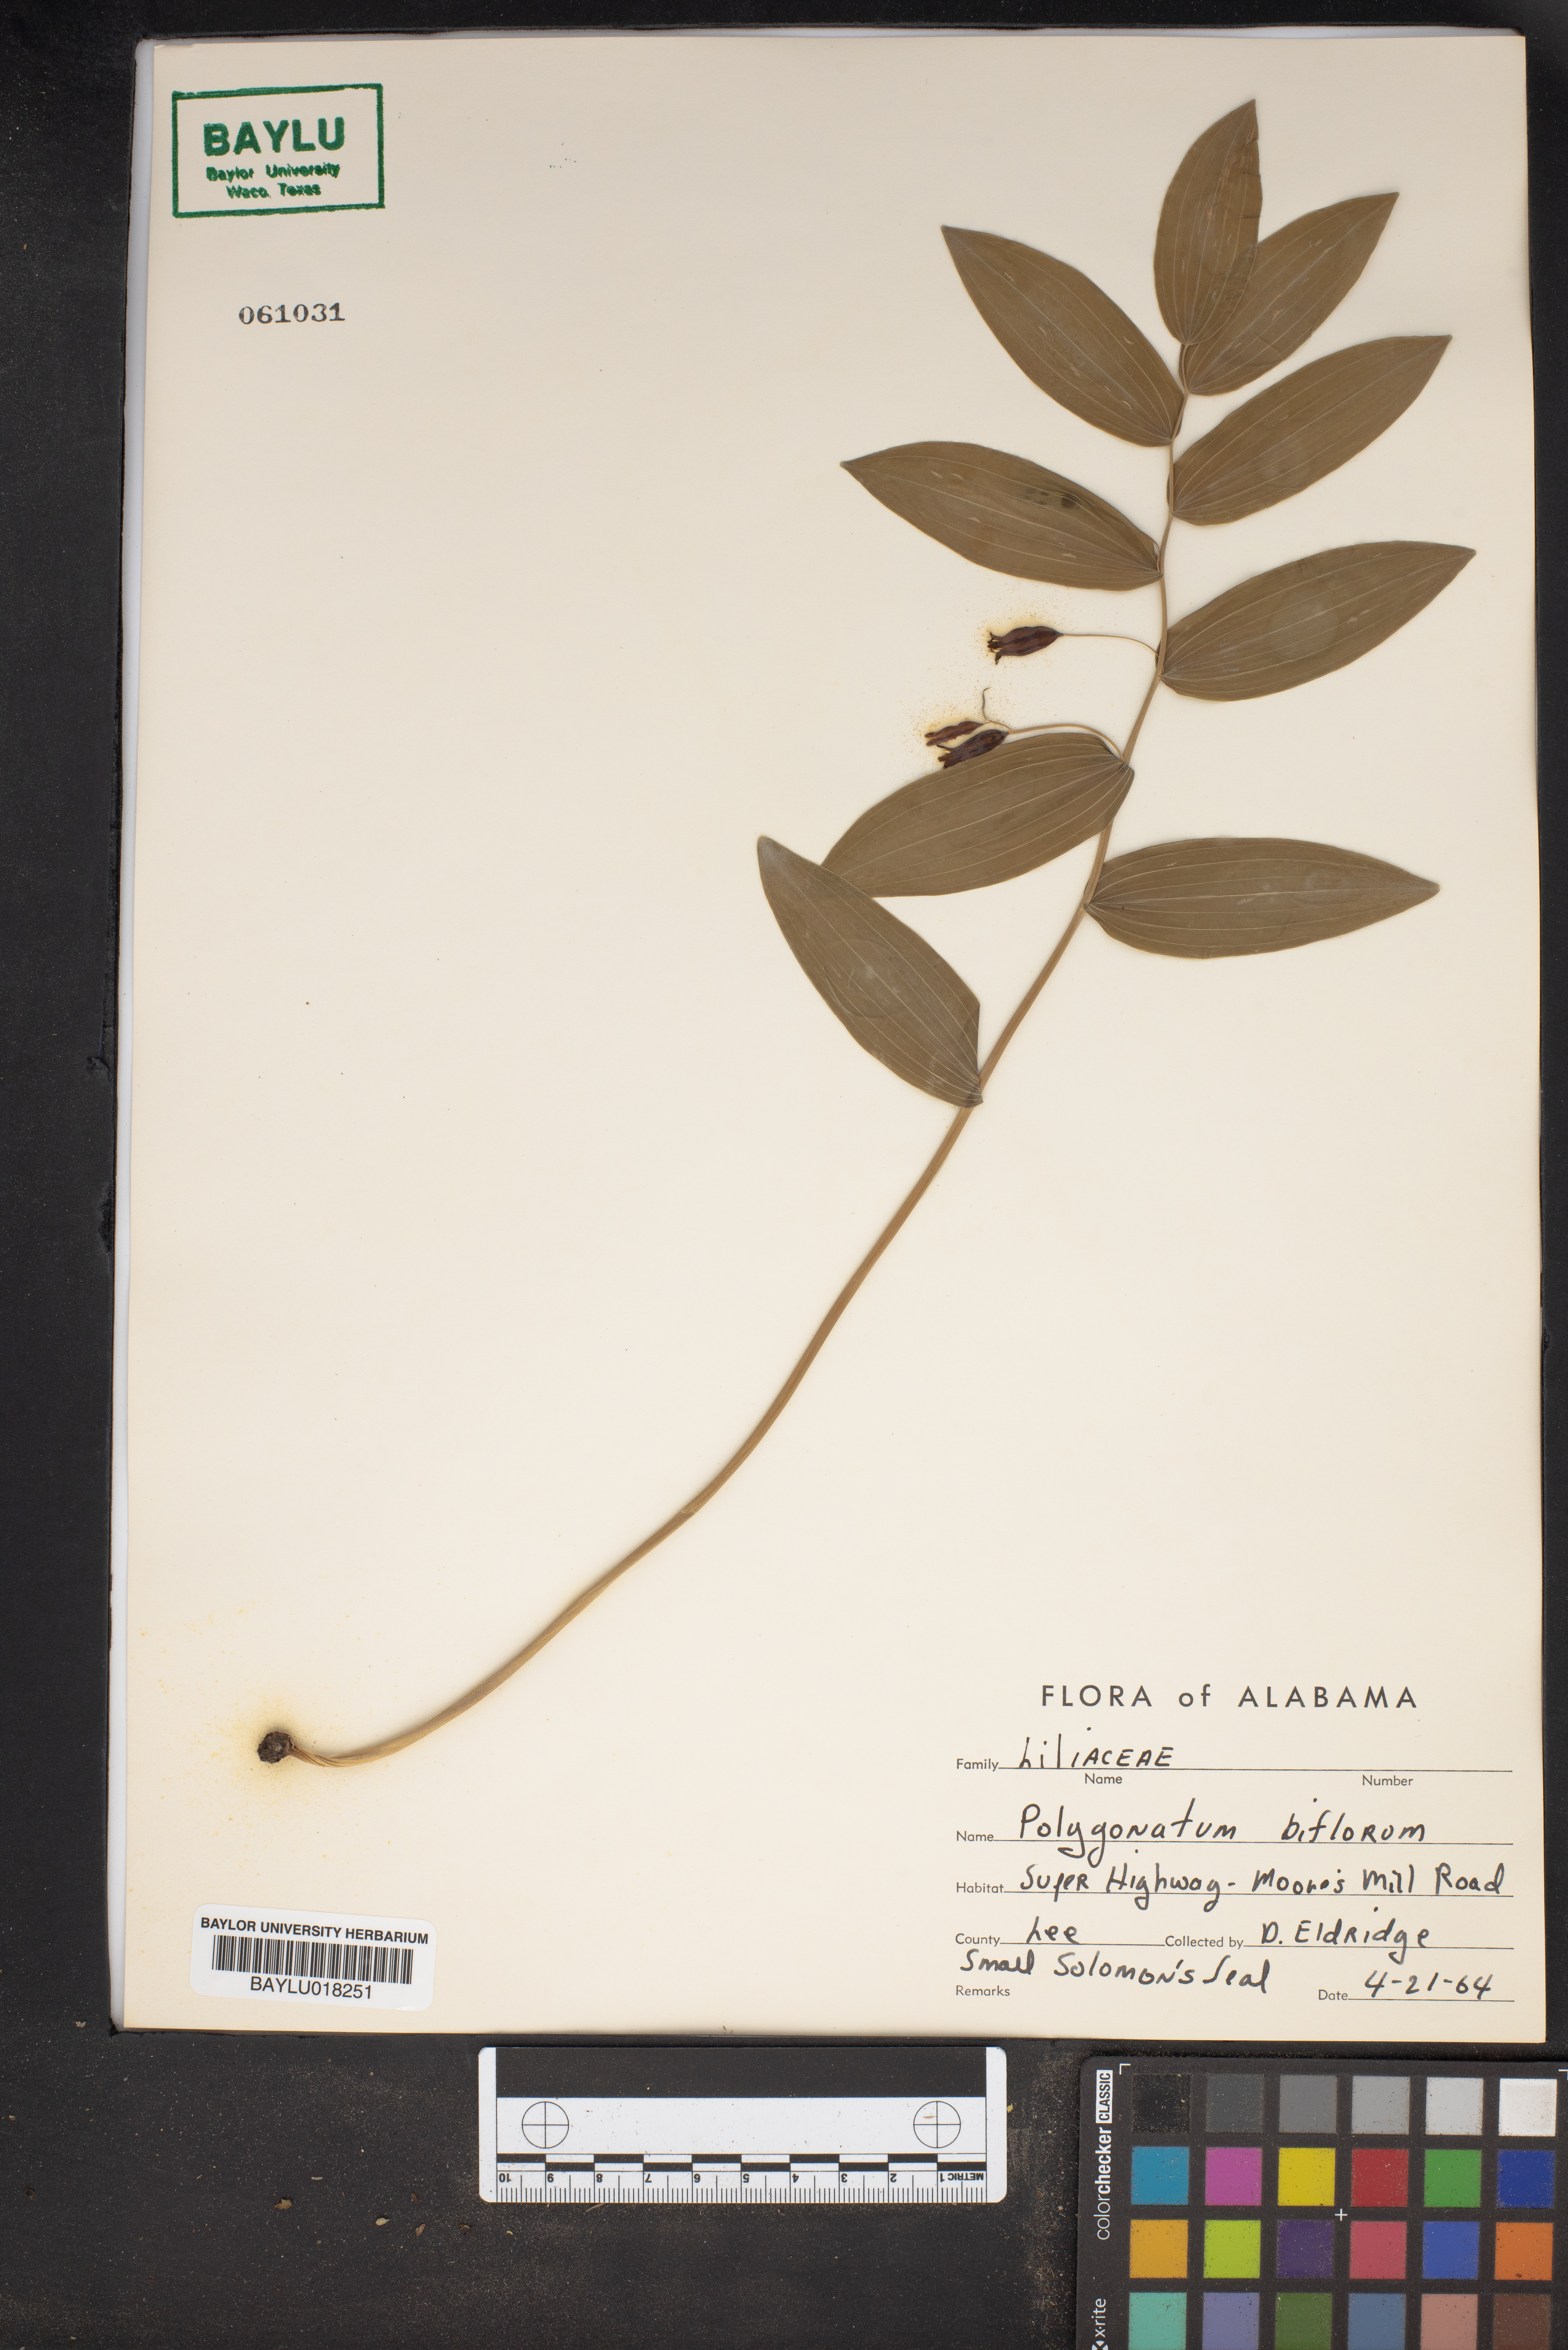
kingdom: Plantae
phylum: Tracheophyta
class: Liliopsida
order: Asparagales
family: Asparagaceae
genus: Polygonatum
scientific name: Polygonatum biflorum
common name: American solomon's-seal
